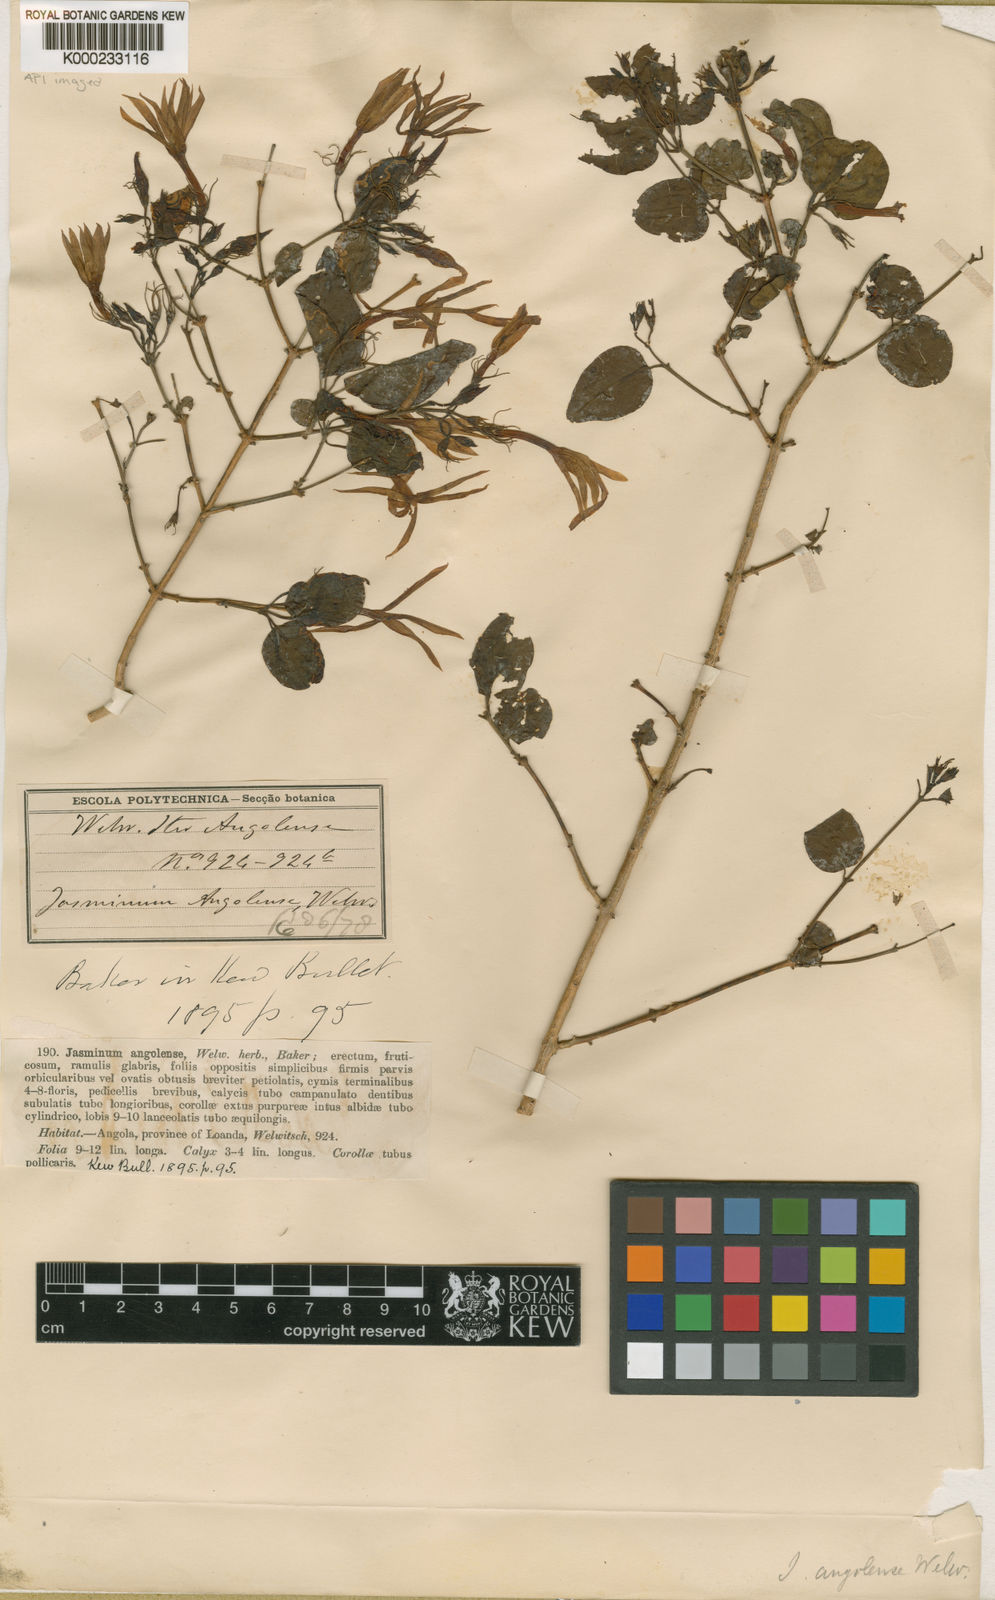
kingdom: Plantae
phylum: Tracheophyta
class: Magnoliopsida
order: Lamiales
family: Oleaceae
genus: Jasminum
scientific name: Jasminum angolense
